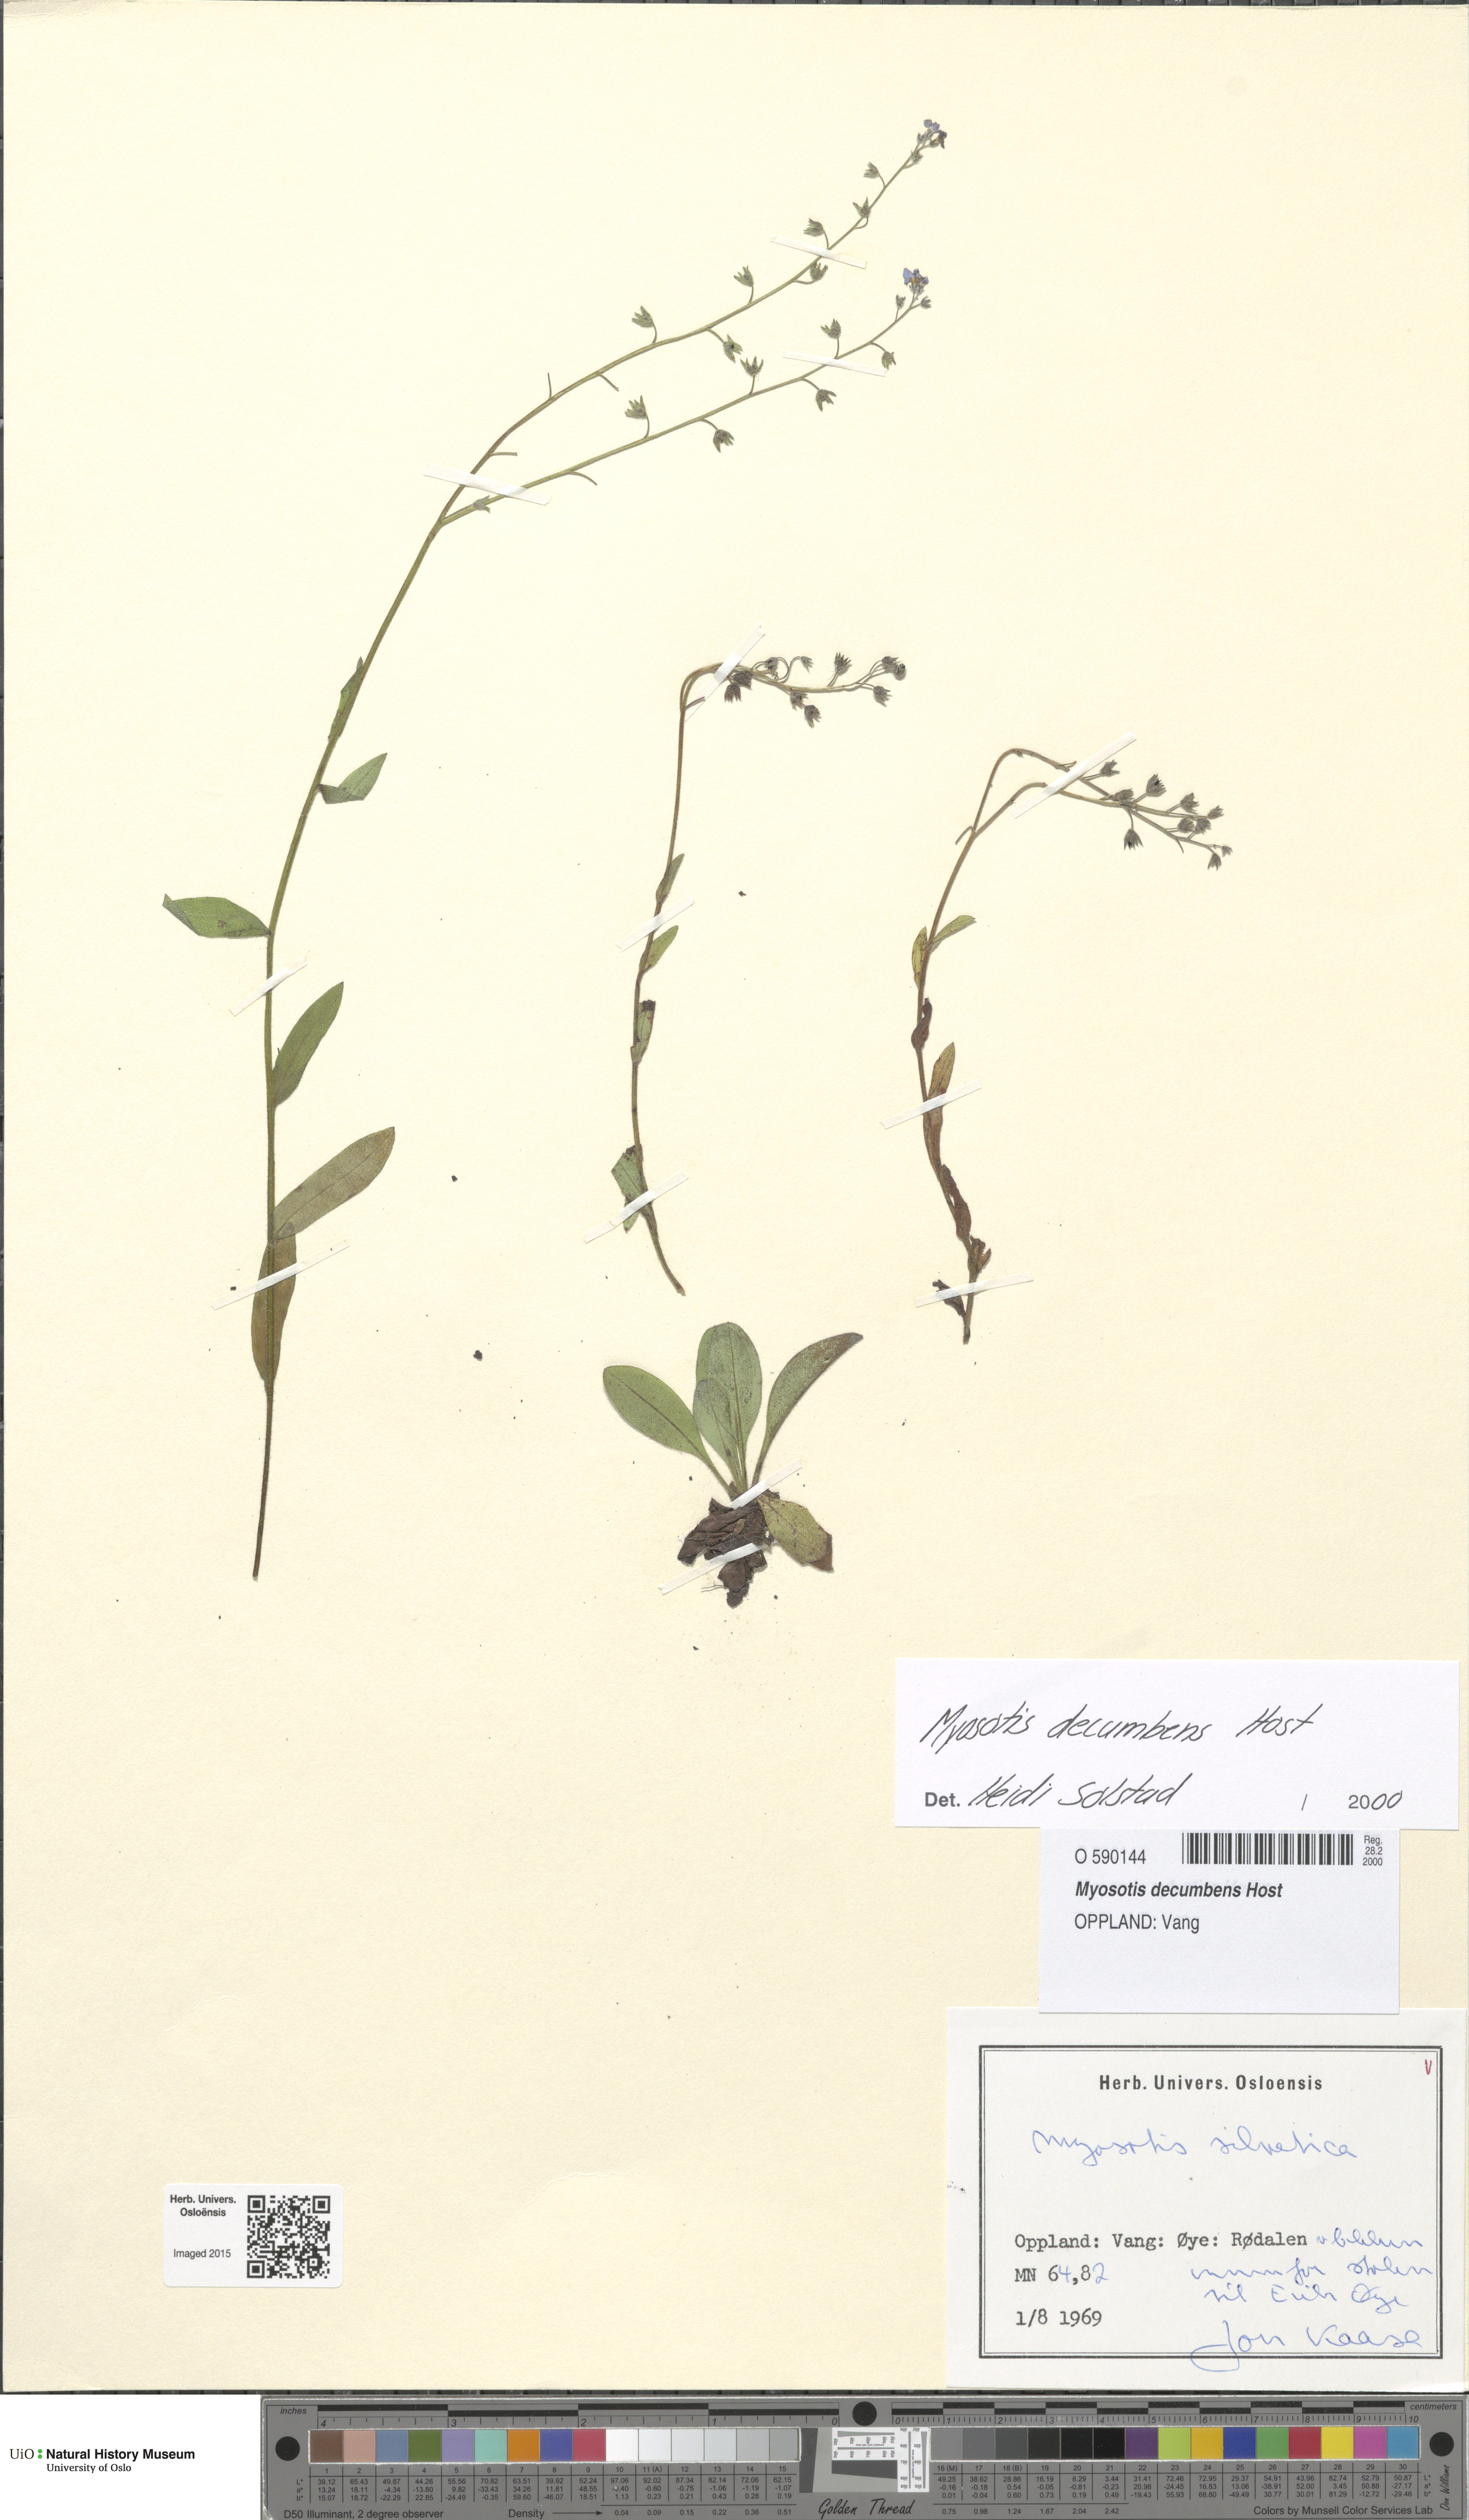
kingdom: Plantae
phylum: Tracheophyta
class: Magnoliopsida
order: Boraginales
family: Boraginaceae
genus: Myosotis
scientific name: Myosotis decumbens
